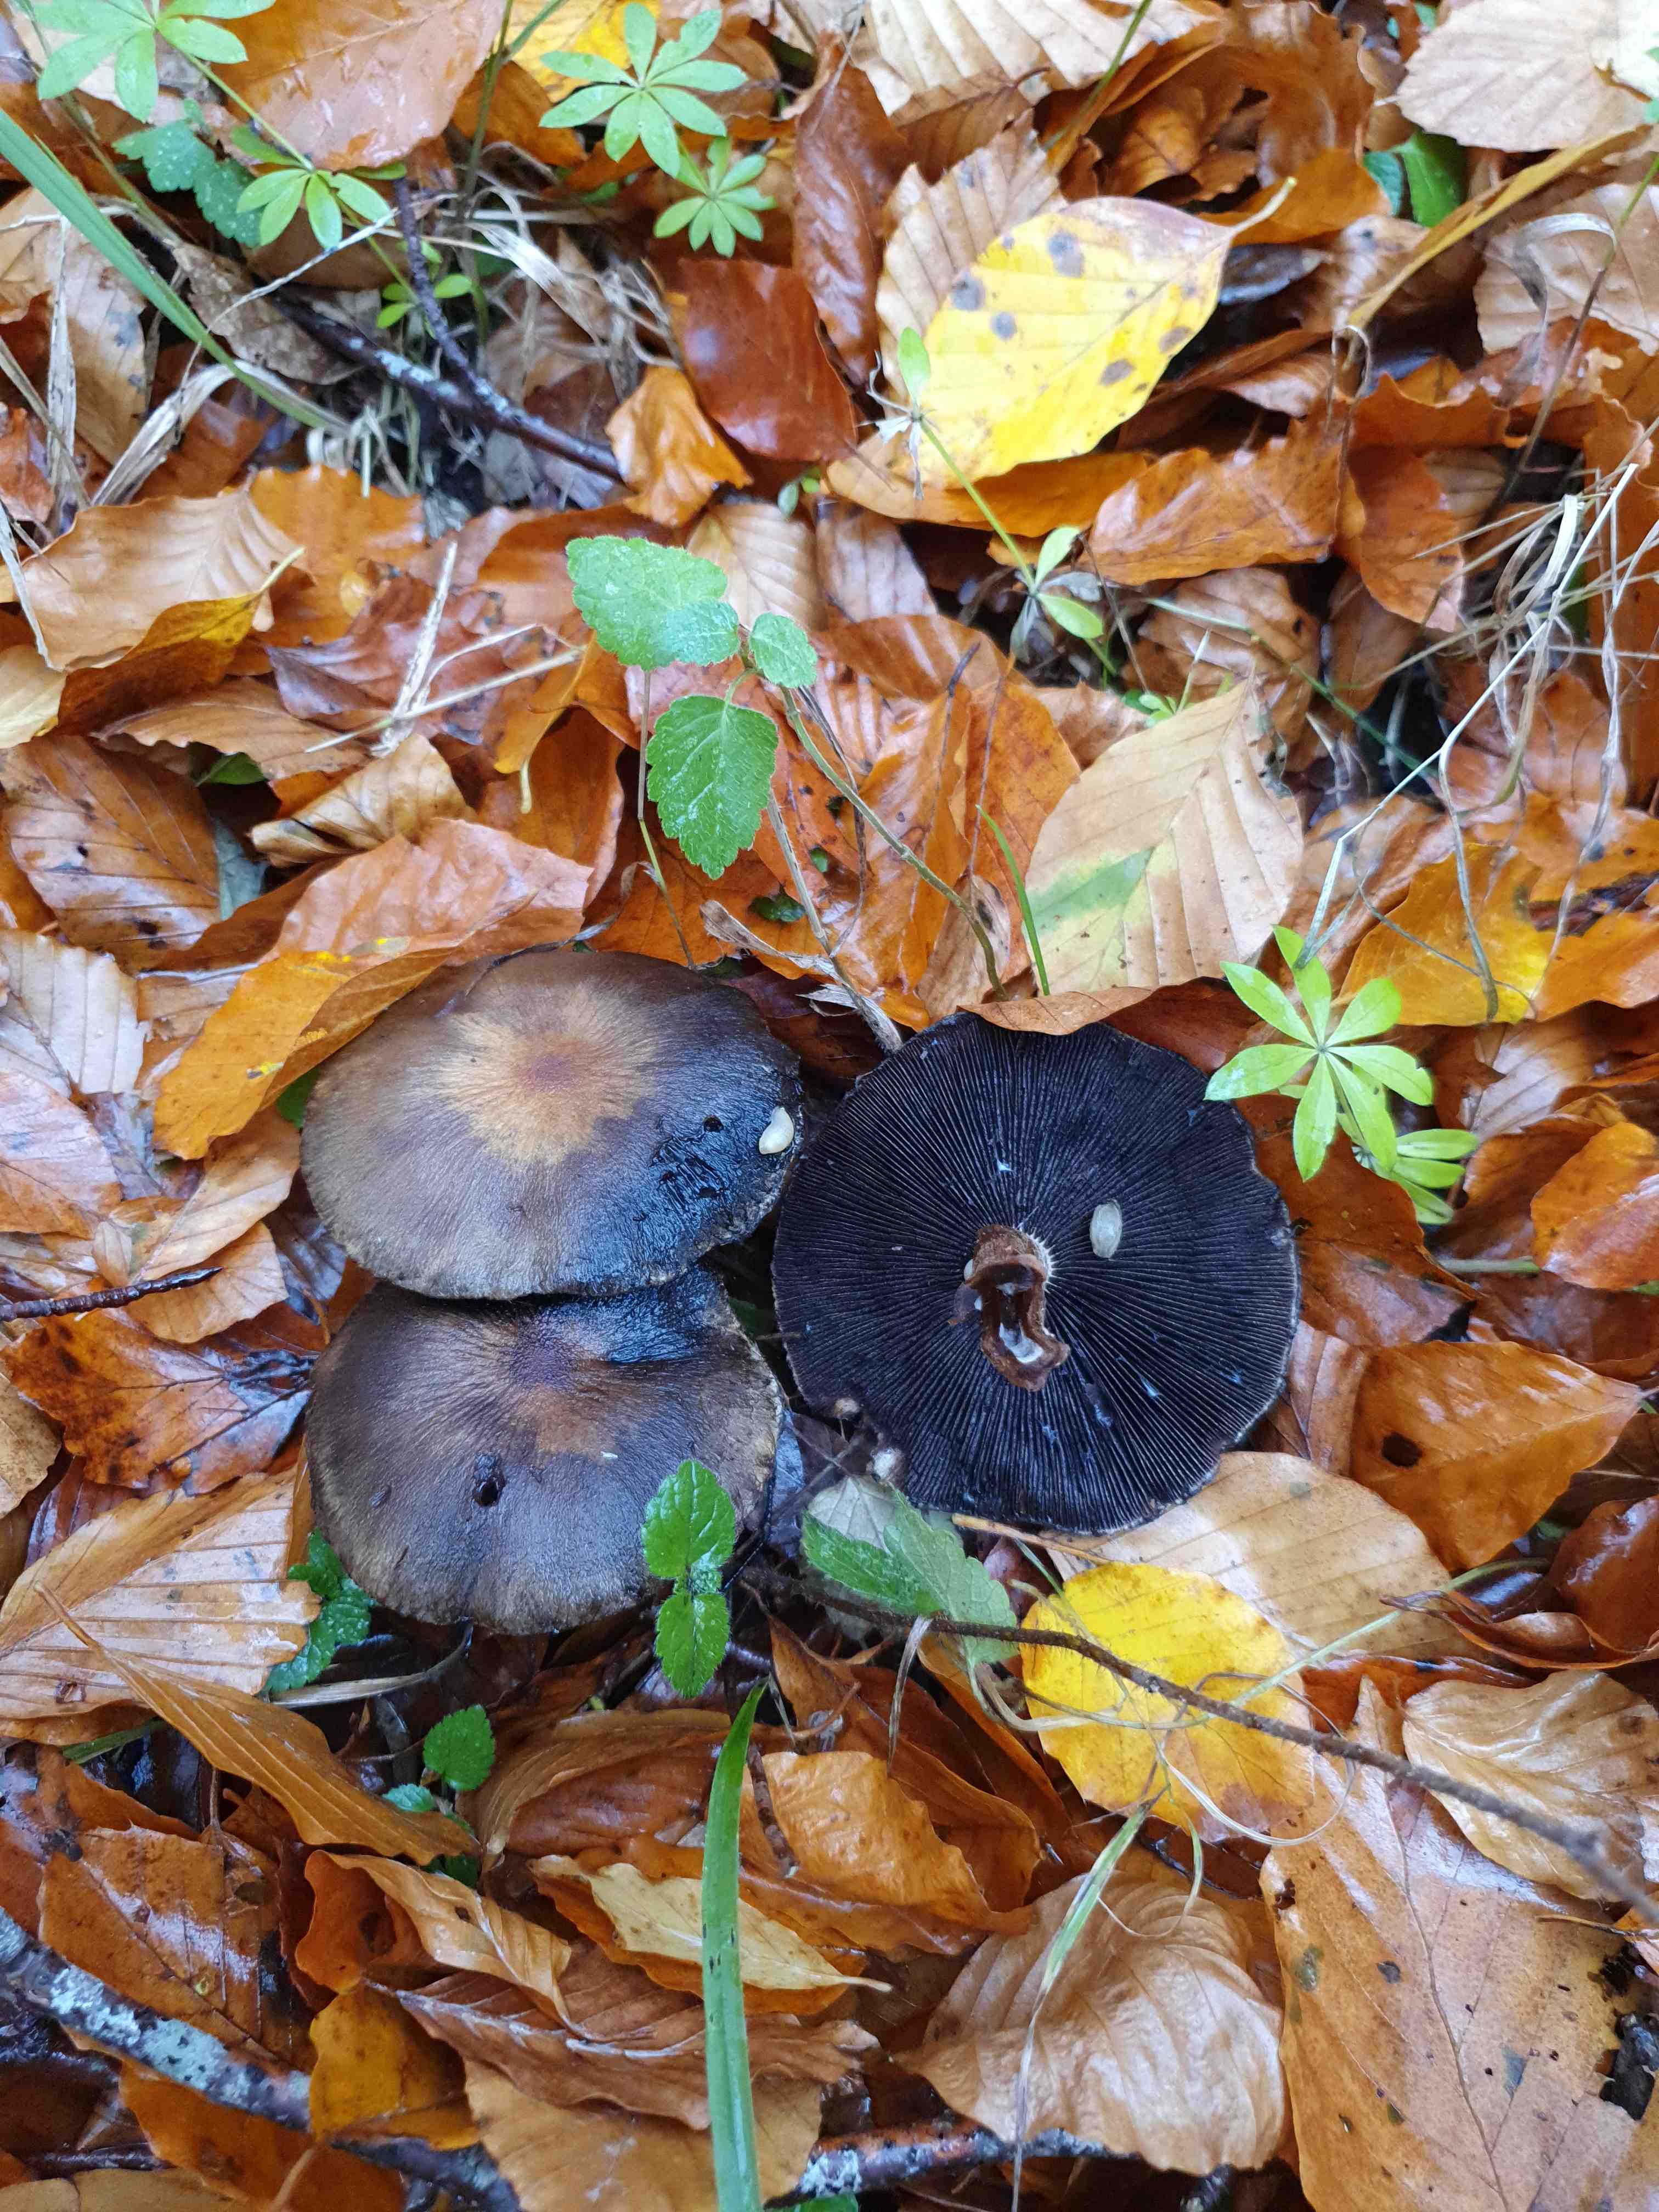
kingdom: Fungi
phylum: Basidiomycota
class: Agaricomycetes
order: Agaricales
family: Psathyrellaceae
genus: Lacrymaria
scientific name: Lacrymaria lacrymabunda
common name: grædende mørkhat
